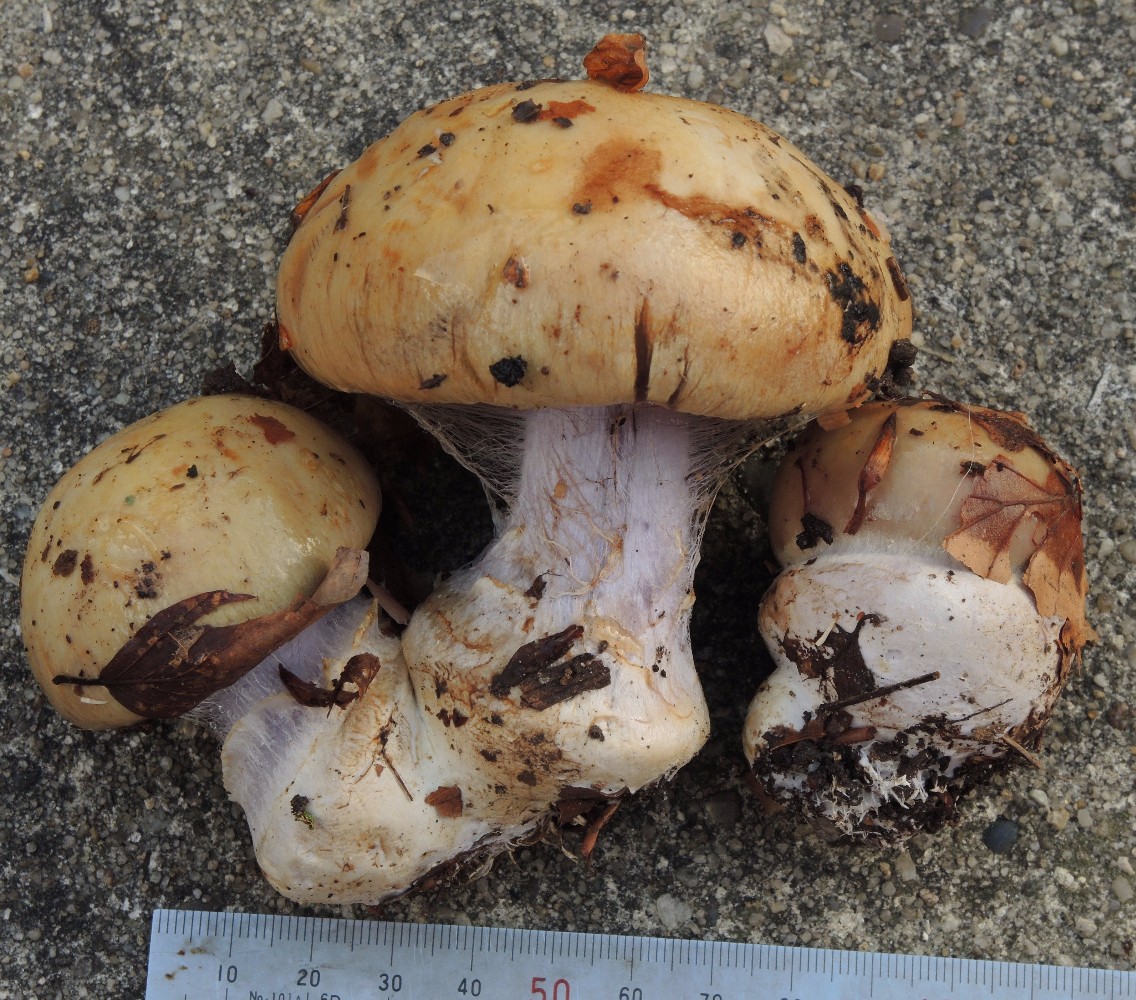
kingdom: Fungi
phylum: Basidiomycota
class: Agaricomycetes
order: Agaricales
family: Cortinariaceae
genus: Cortinarius
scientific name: Cortinarius anserinus
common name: bøge-slørhat
